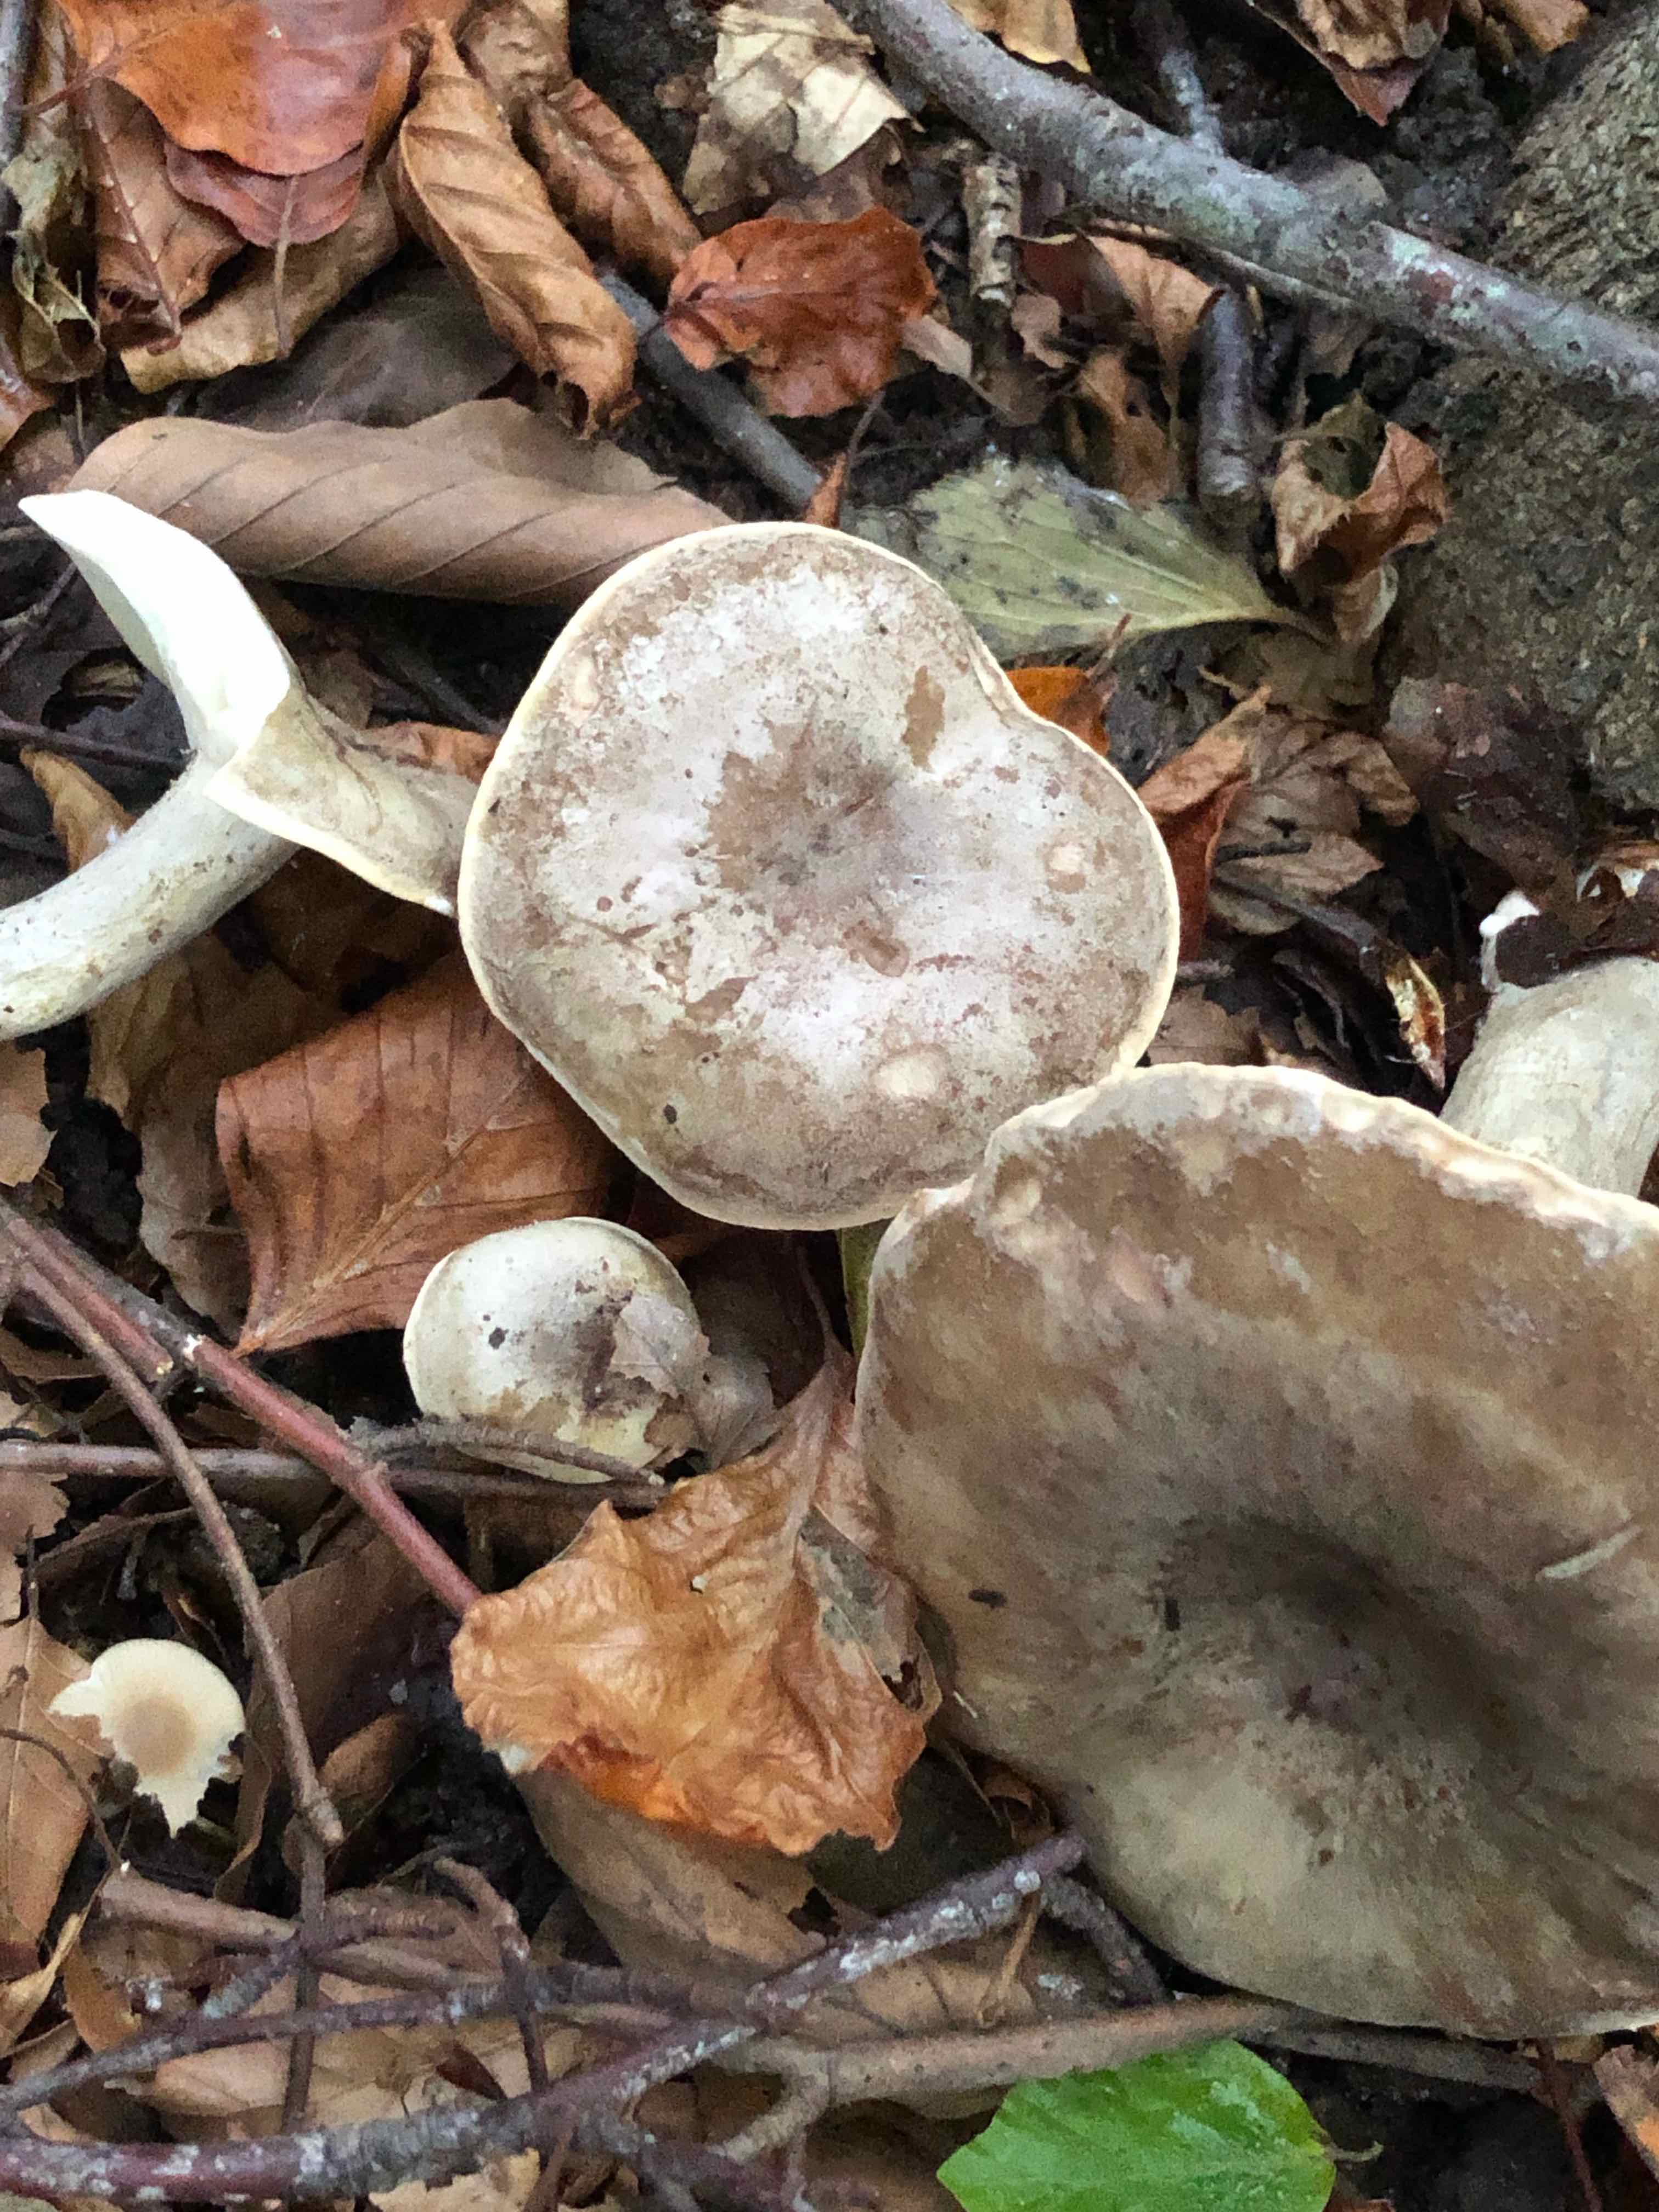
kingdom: Fungi
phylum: Basidiomycota
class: Agaricomycetes
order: Russulales
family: Russulaceae
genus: Lactarius
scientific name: Lactarius fluens
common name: lysrandet mælkehat
